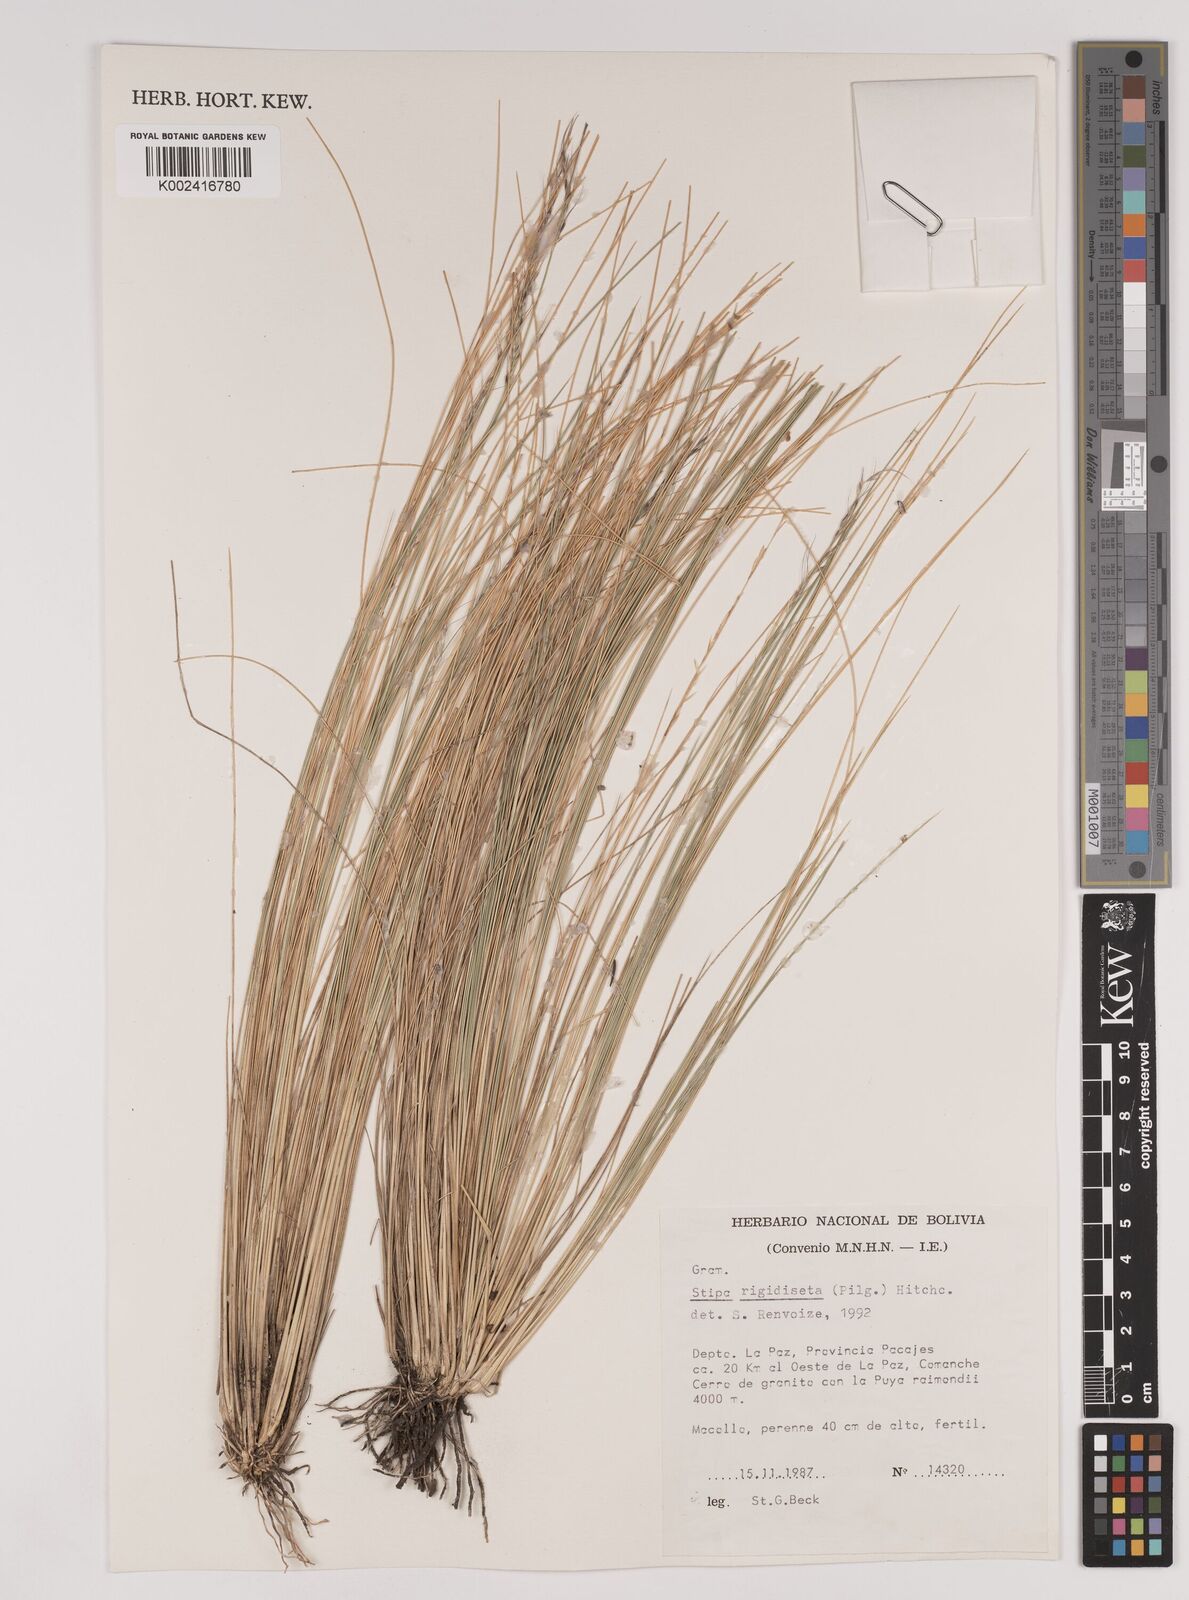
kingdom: Plantae
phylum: Tracheophyta
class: Liliopsida
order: Poales
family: Poaceae
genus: Stipa
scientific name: Stipa rigidiseta
